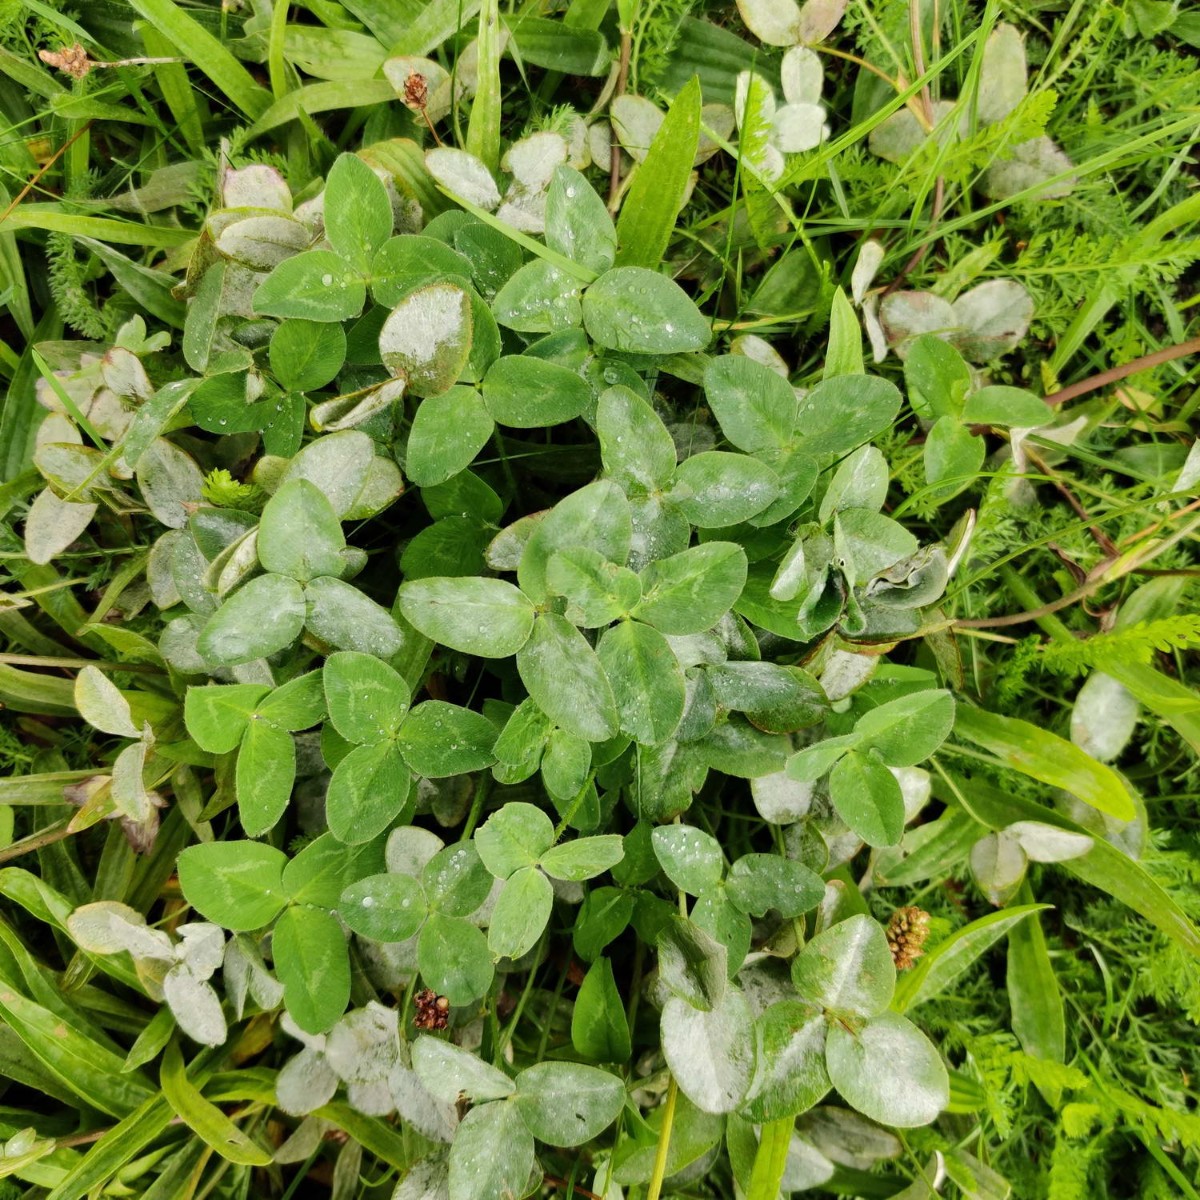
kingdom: Fungi
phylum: Ascomycota
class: Leotiomycetes
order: Helotiales
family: Erysiphaceae
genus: Erysiphe
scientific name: Erysiphe
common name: meldug
